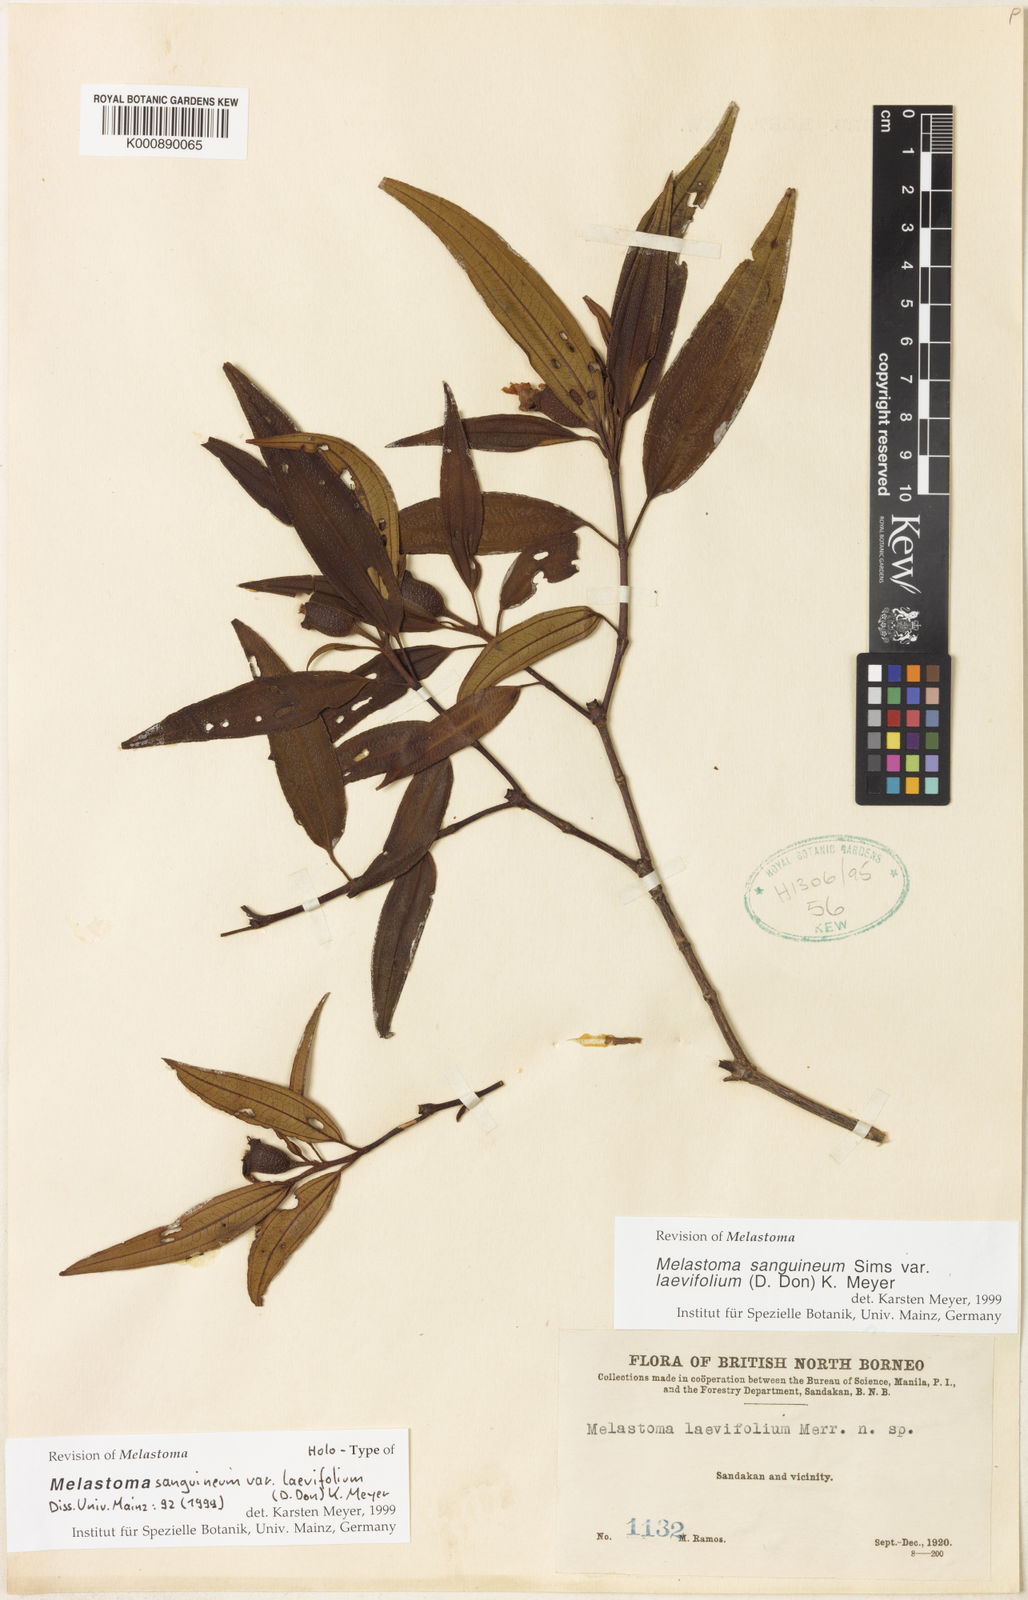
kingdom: Plantae
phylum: Tracheophyta
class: Magnoliopsida
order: Myrtales
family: Melastomataceae
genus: Melastoma
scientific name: Melastoma sanguineum
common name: Red melastome
